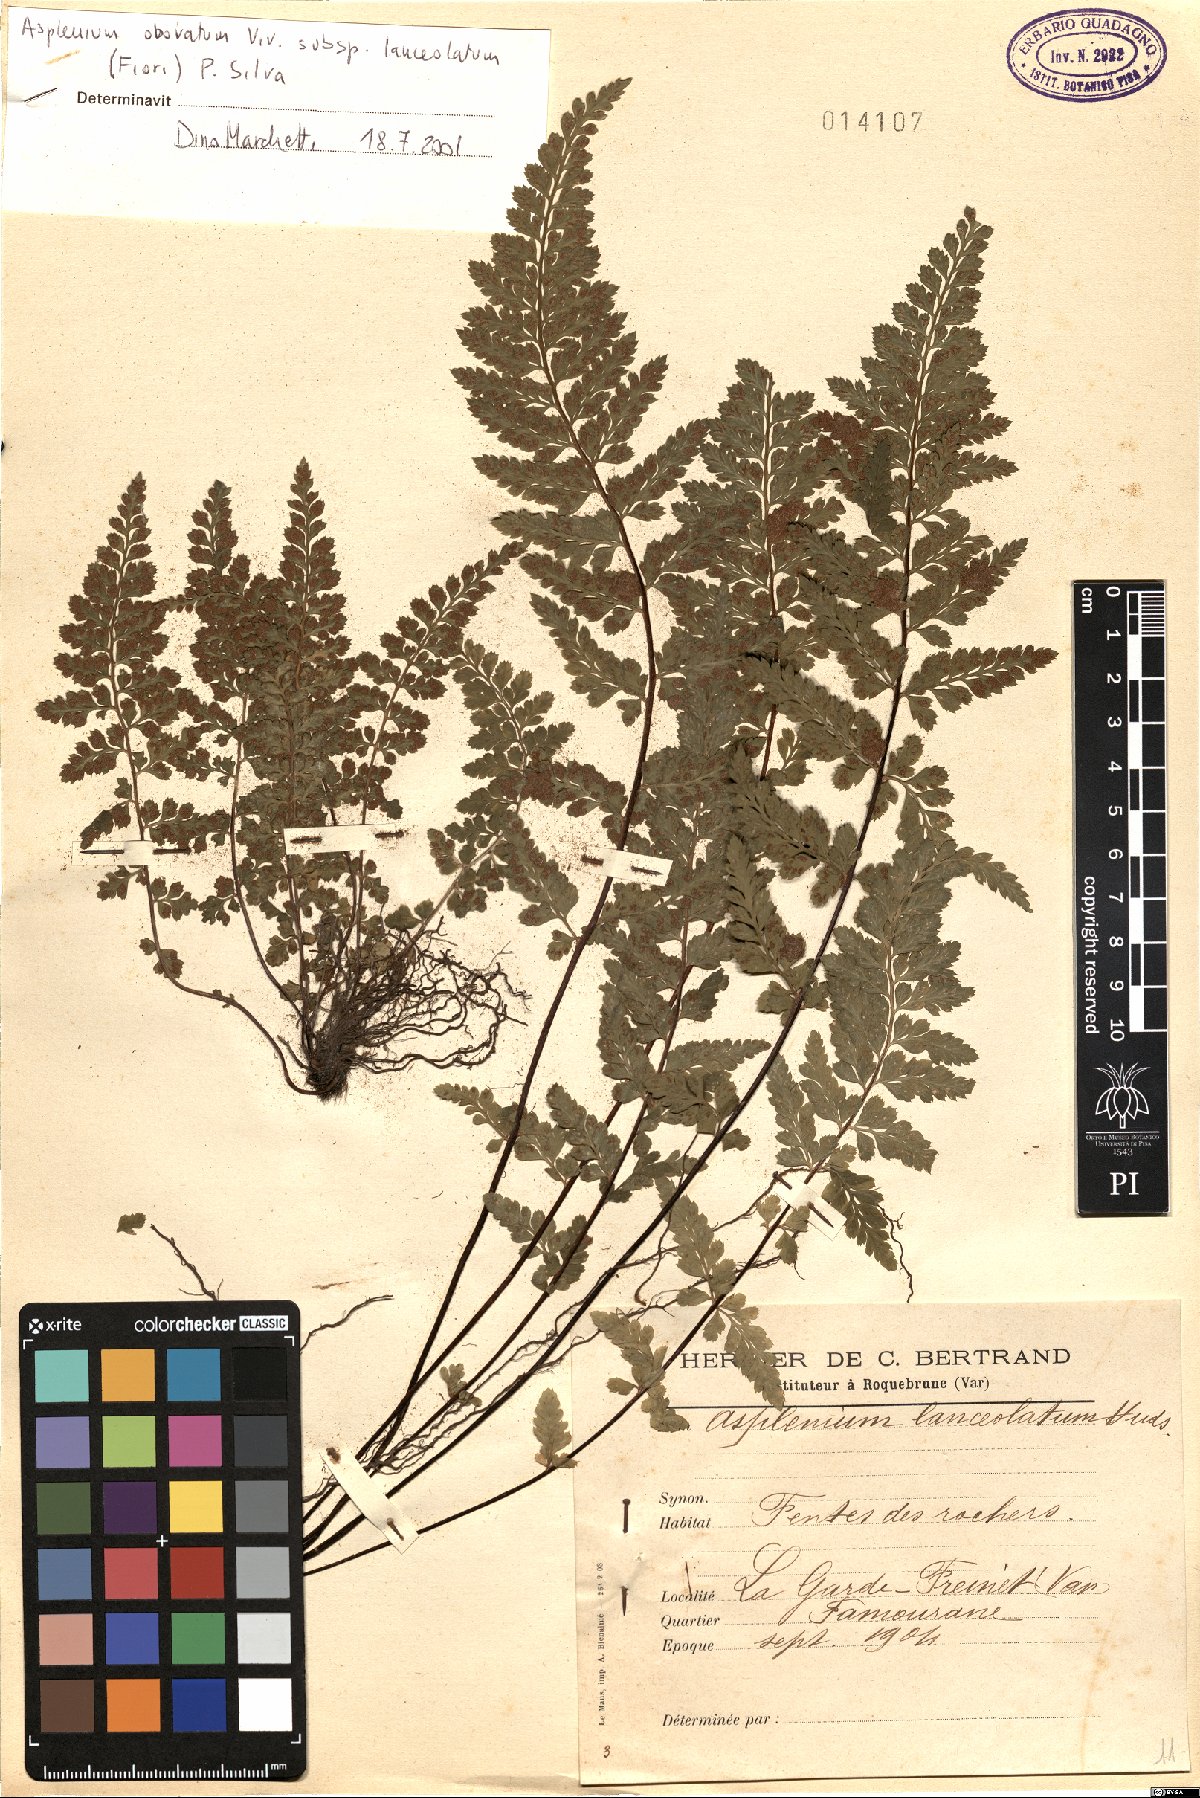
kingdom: Plantae
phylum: Tracheophyta
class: Polypodiopsida
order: Polypodiales
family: Aspleniaceae
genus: Asplenium
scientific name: Asplenium obovatum
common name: Lanceolate spleenwort
